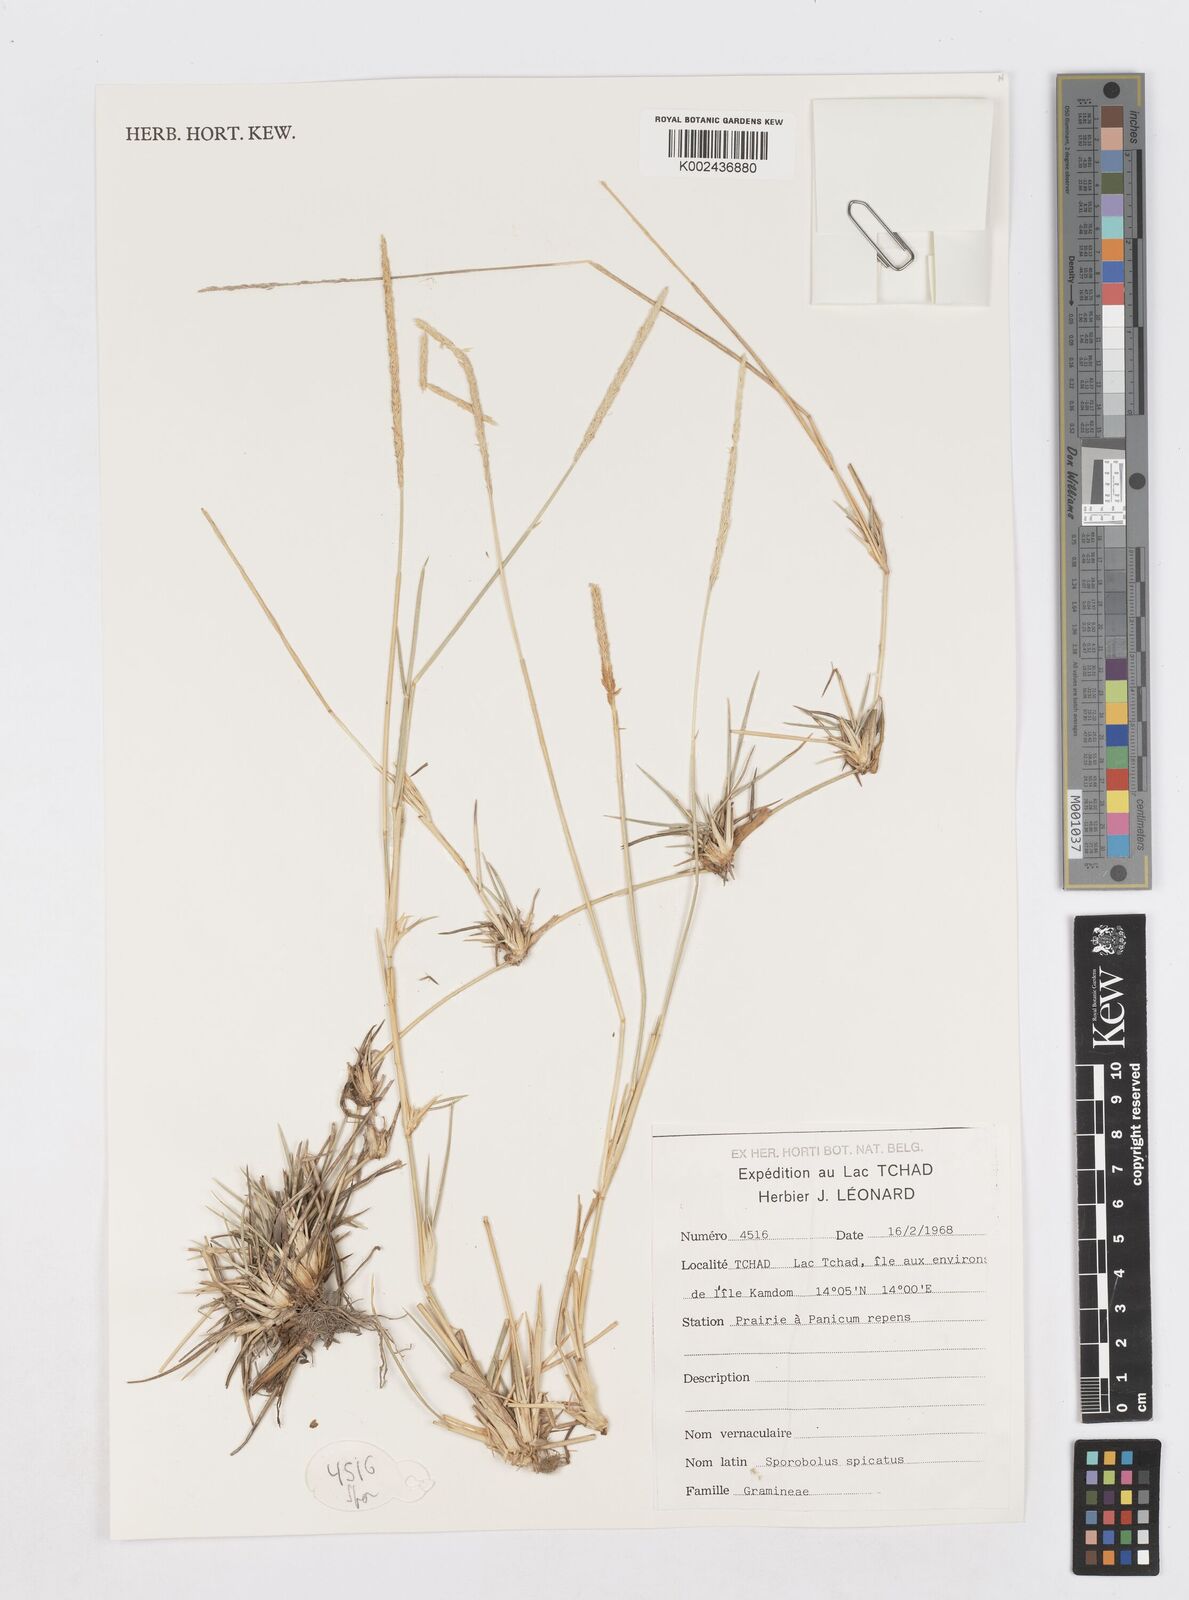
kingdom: Plantae
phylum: Tracheophyta
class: Liliopsida
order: Poales
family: Poaceae
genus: Sporobolus
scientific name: Sporobolus spicatus
